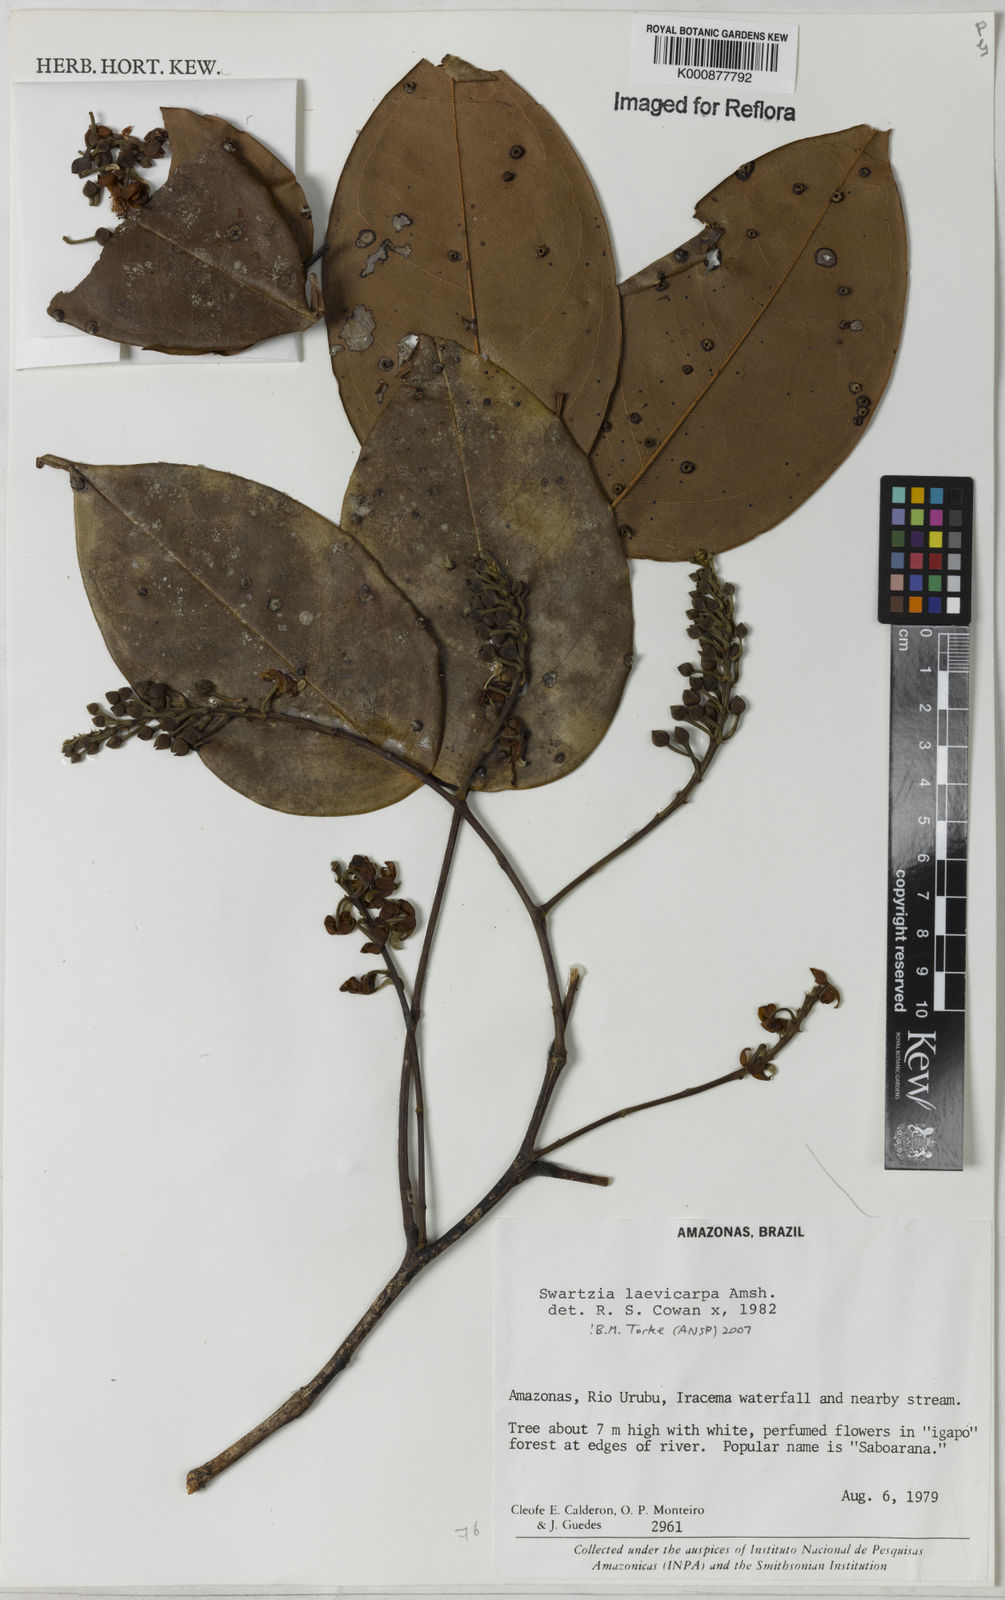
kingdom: Plantae
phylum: Tracheophyta
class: Magnoliopsida
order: Fabales
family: Fabaceae
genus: Swartzia
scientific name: Swartzia laevicarpa
